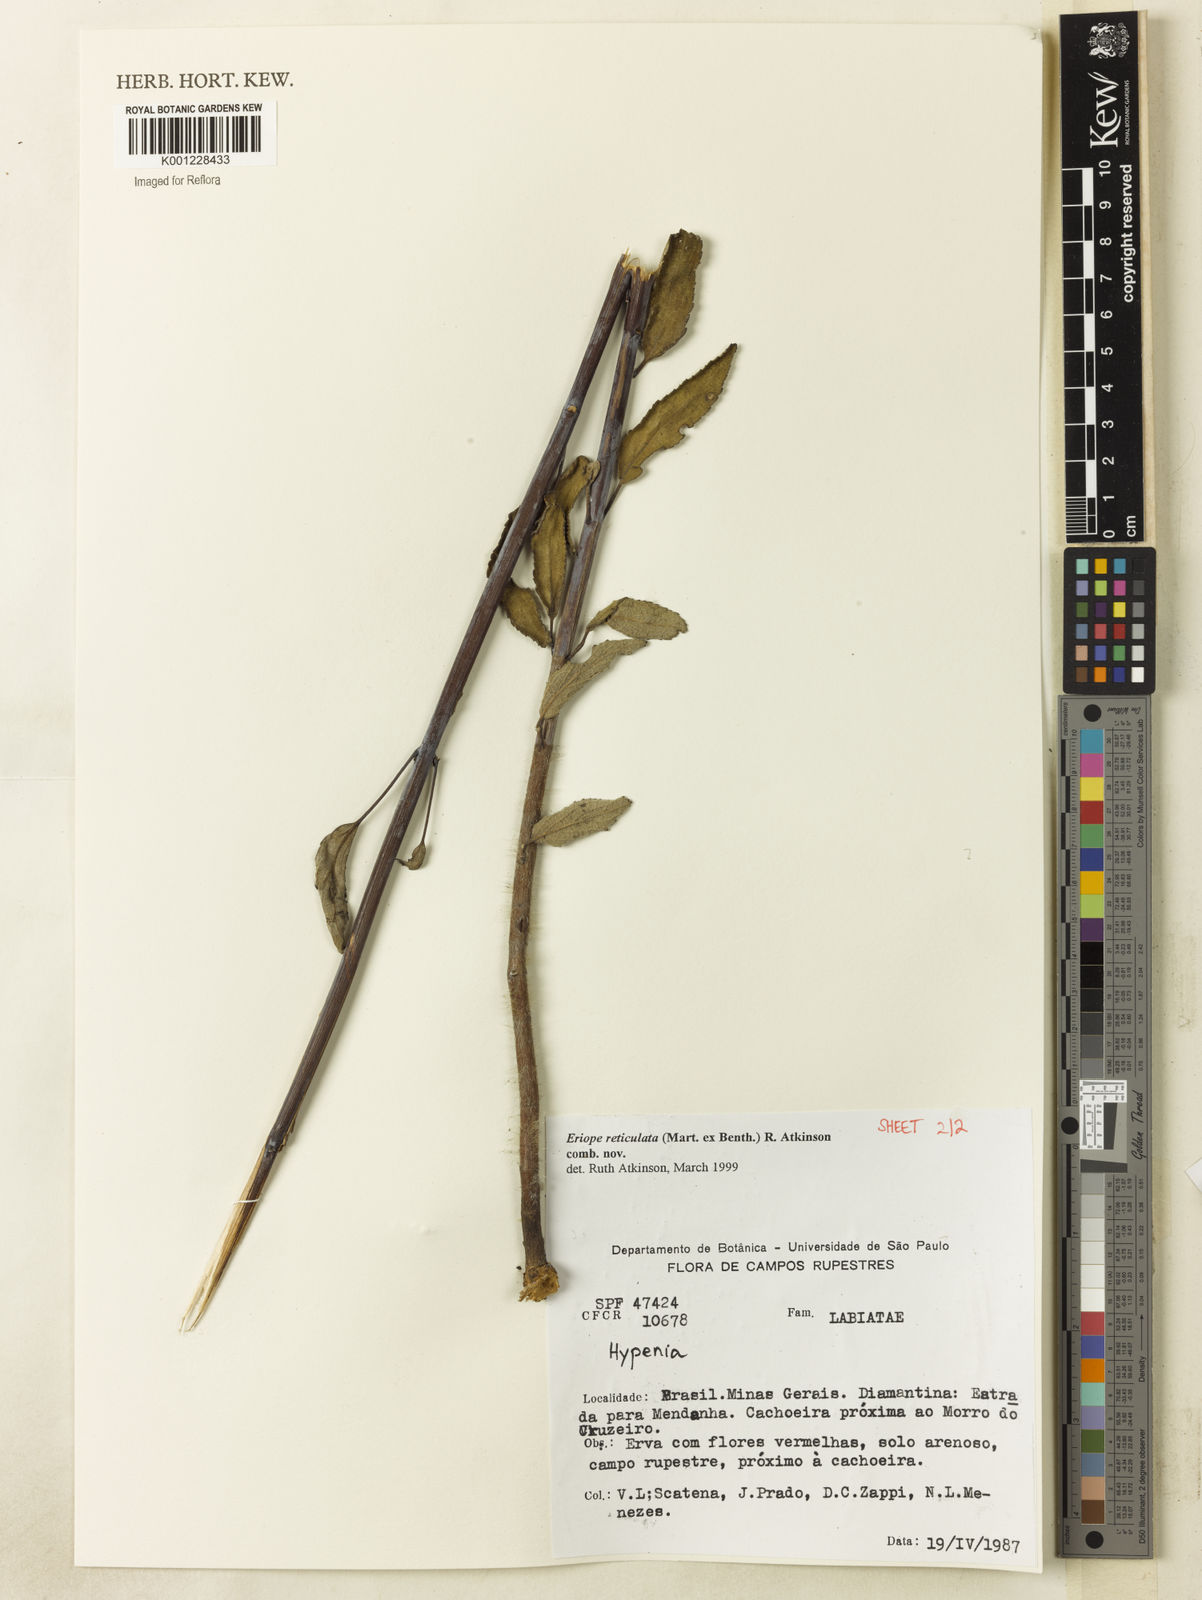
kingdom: Plantae
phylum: Tracheophyta
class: Magnoliopsida
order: Lamiales
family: Lamiaceae
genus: Hypenia
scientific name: Hypenia reticulata
